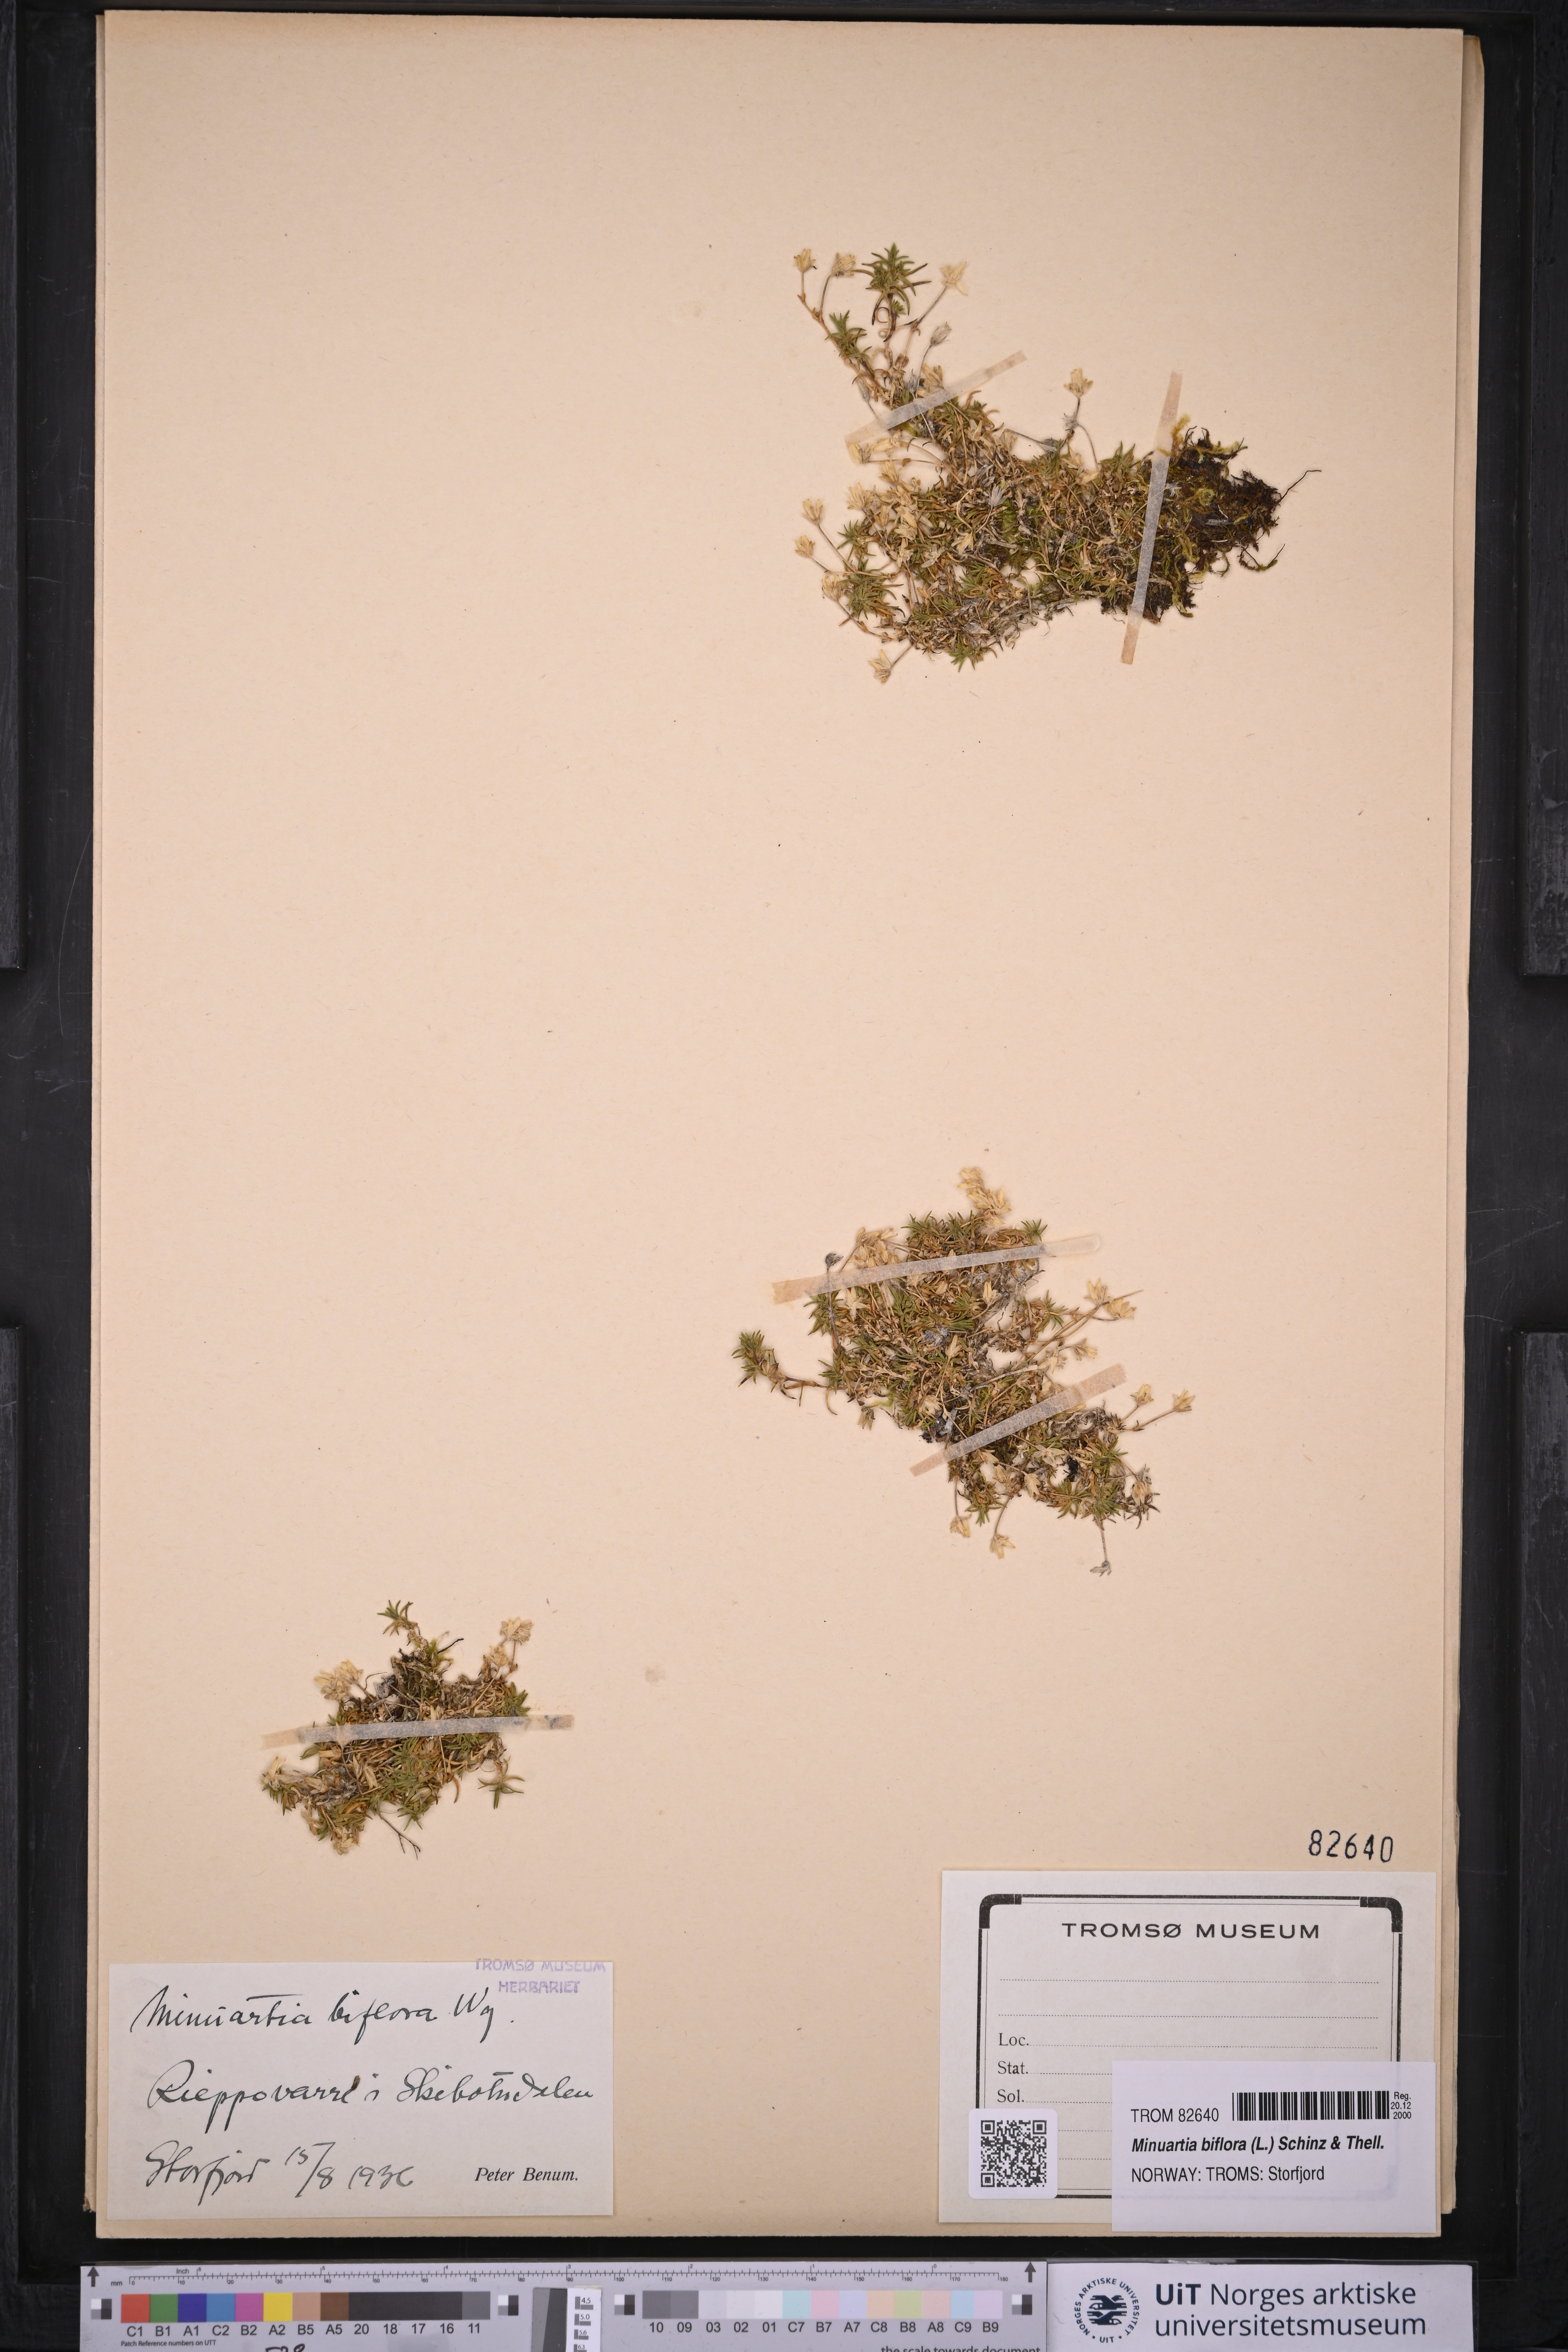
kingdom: Plantae
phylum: Tracheophyta
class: Magnoliopsida
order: Caryophyllales
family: Caryophyllaceae
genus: Cherleria
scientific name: Cherleria biflora
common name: Mountain sandwort
